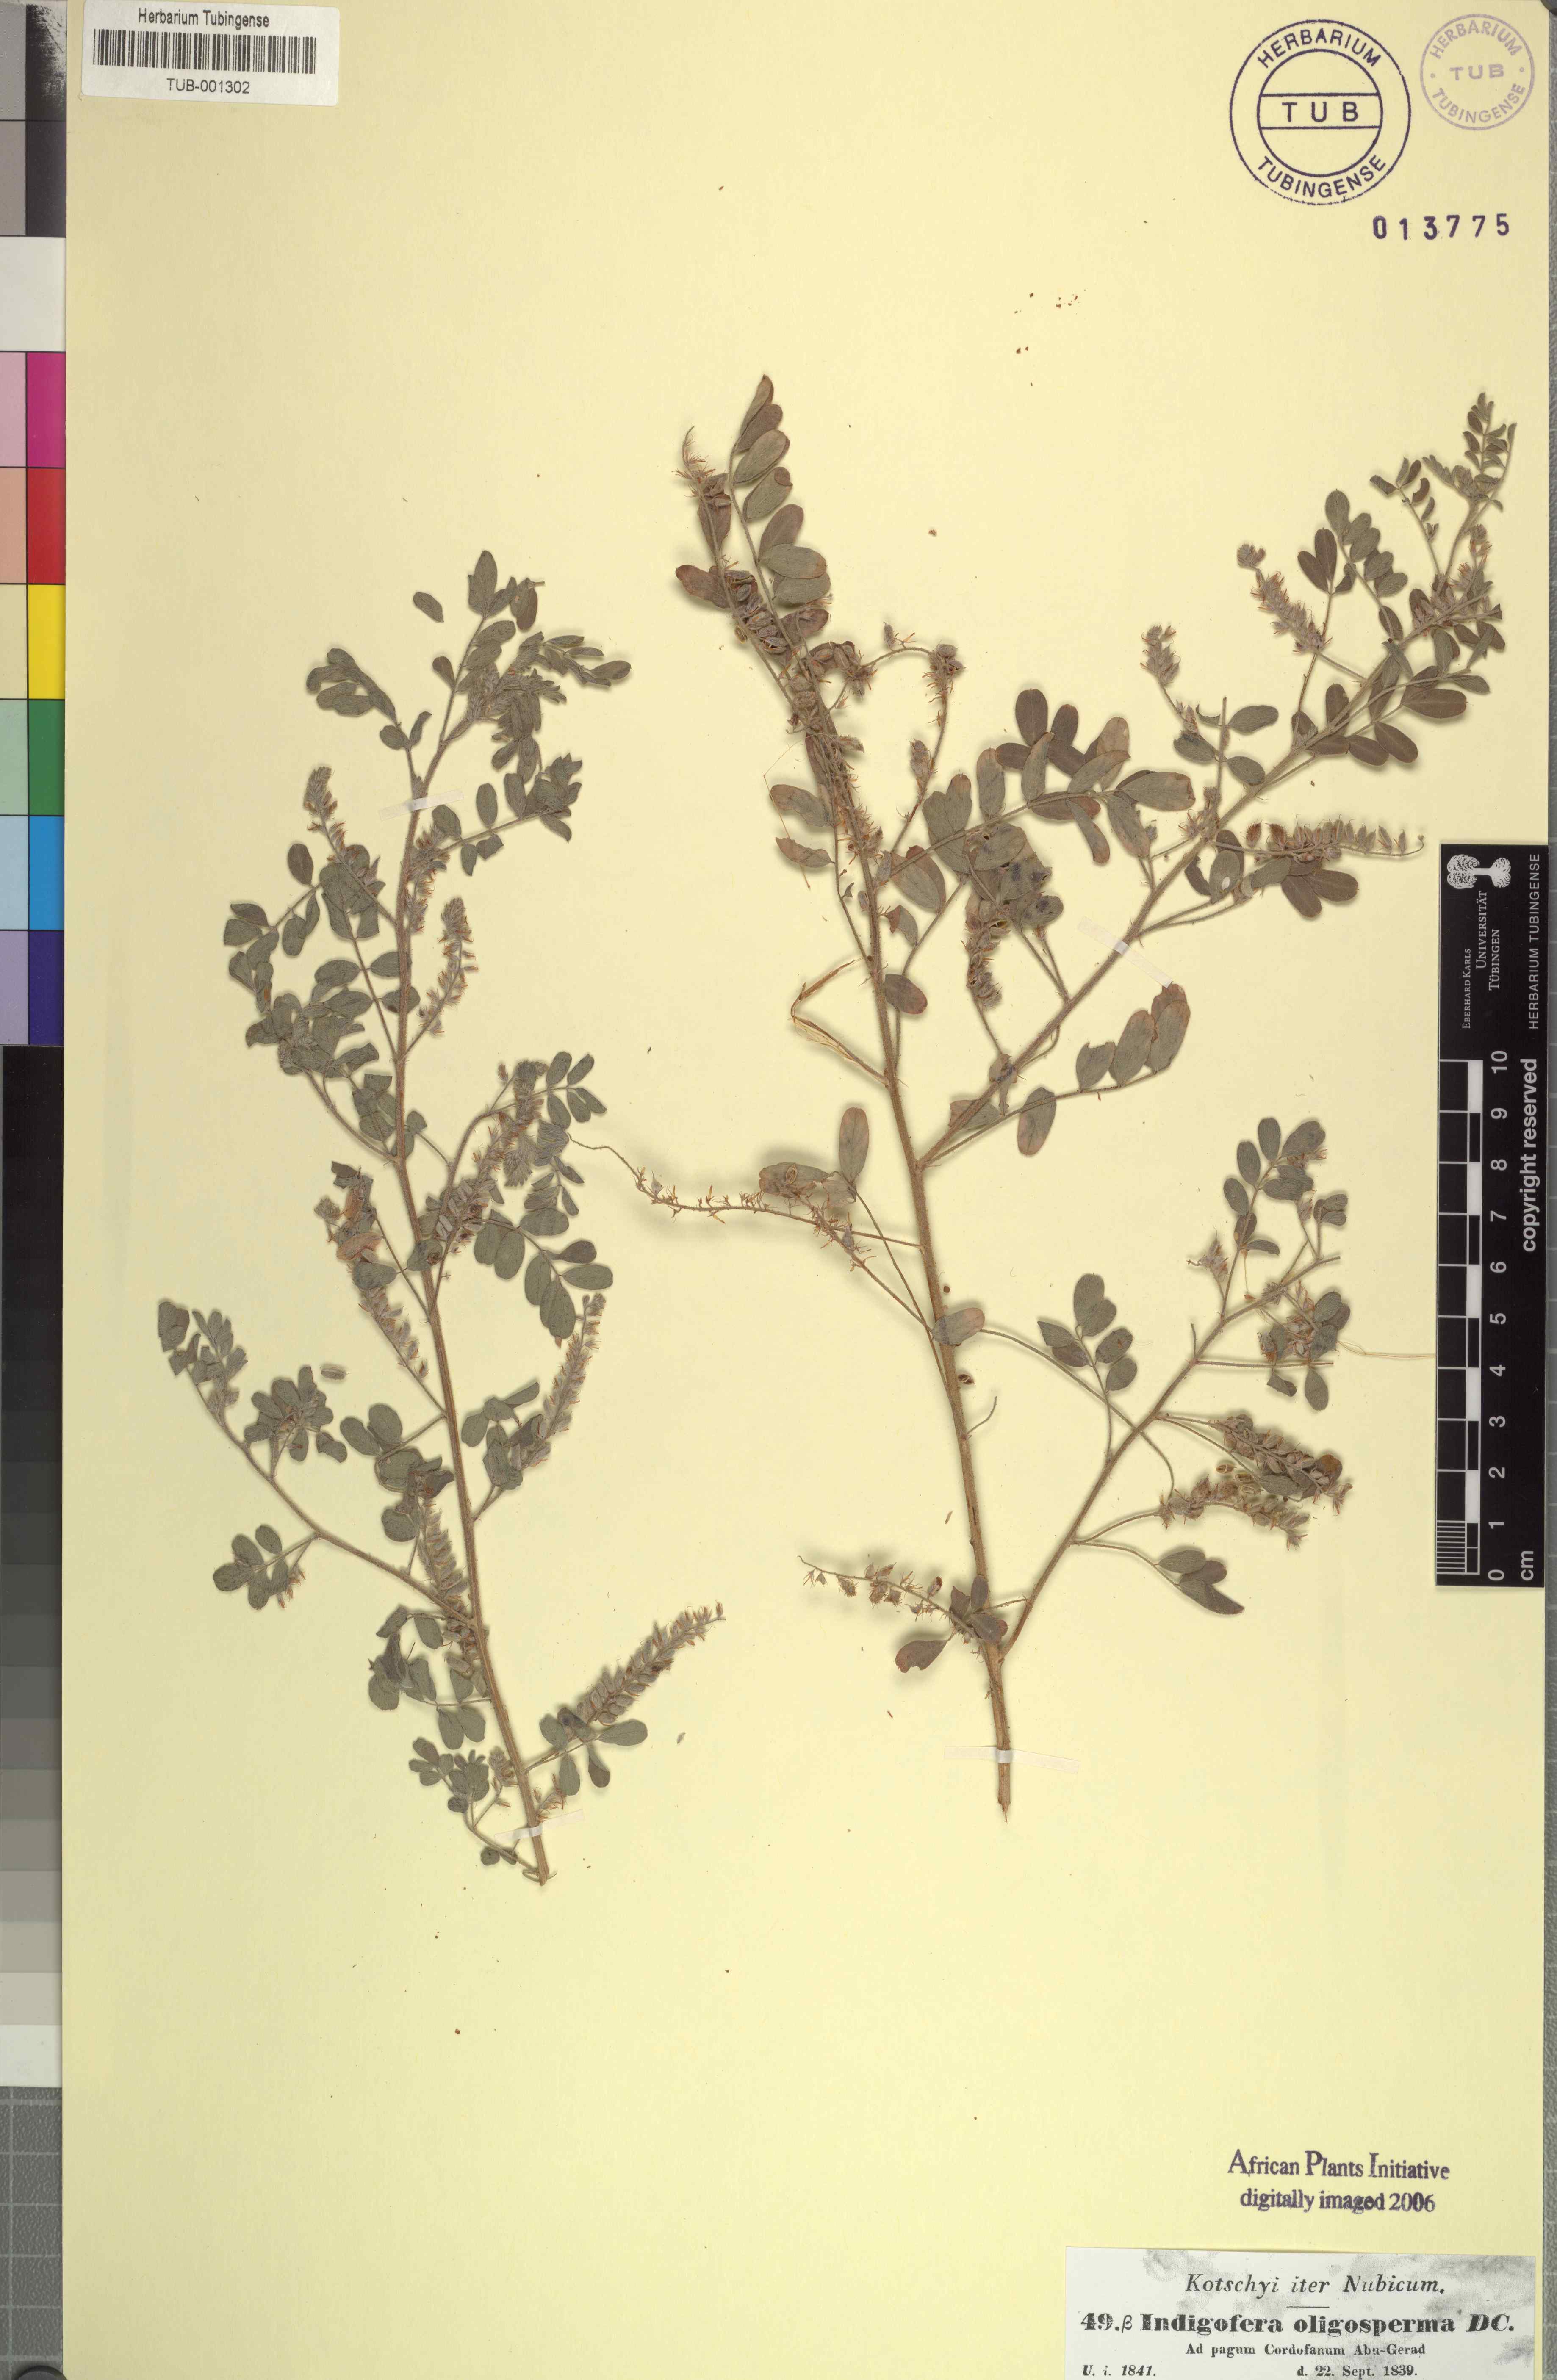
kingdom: Plantae
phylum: Tracheophyta
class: Magnoliopsida
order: Fabales
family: Fabaceae
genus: Indigofera
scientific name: Indigofera secundiflora
